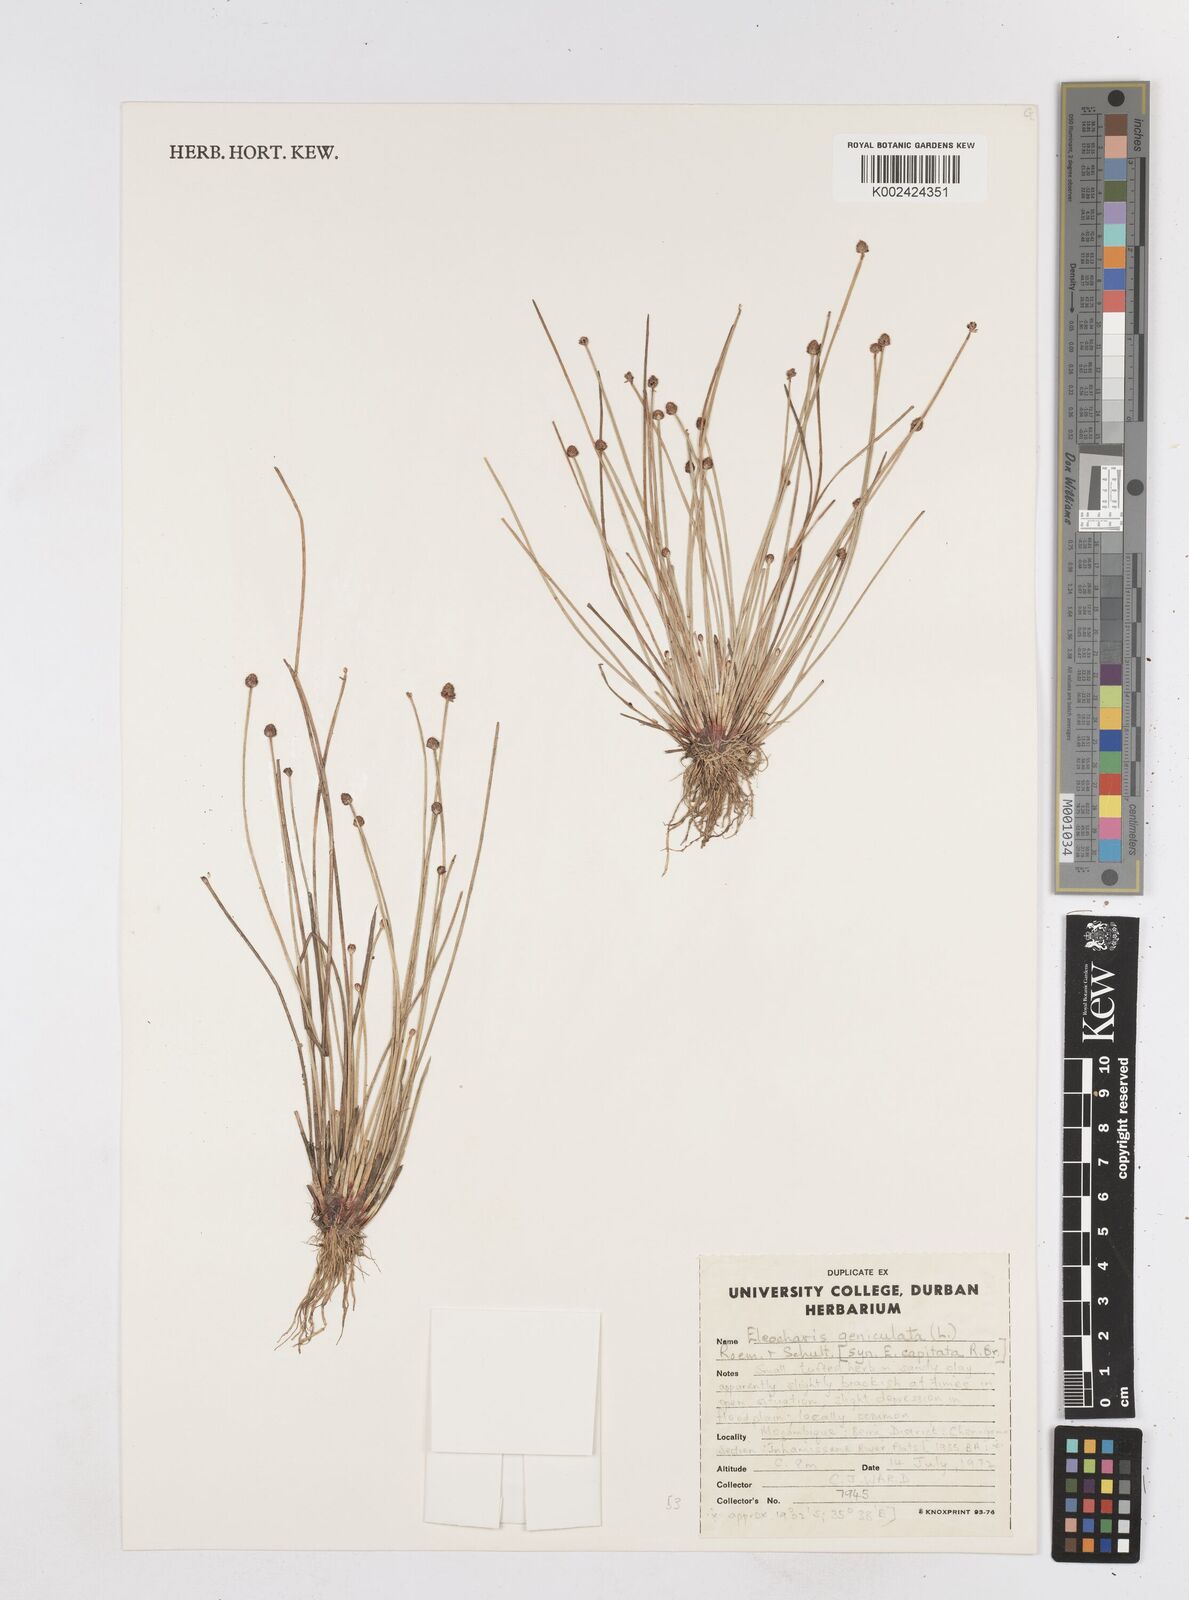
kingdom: Plantae
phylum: Tracheophyta
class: Liliopsida
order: Poales
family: Cyperaceae
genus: Eleocharis
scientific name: Eleocharis geniculata
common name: Canada spikesedge
